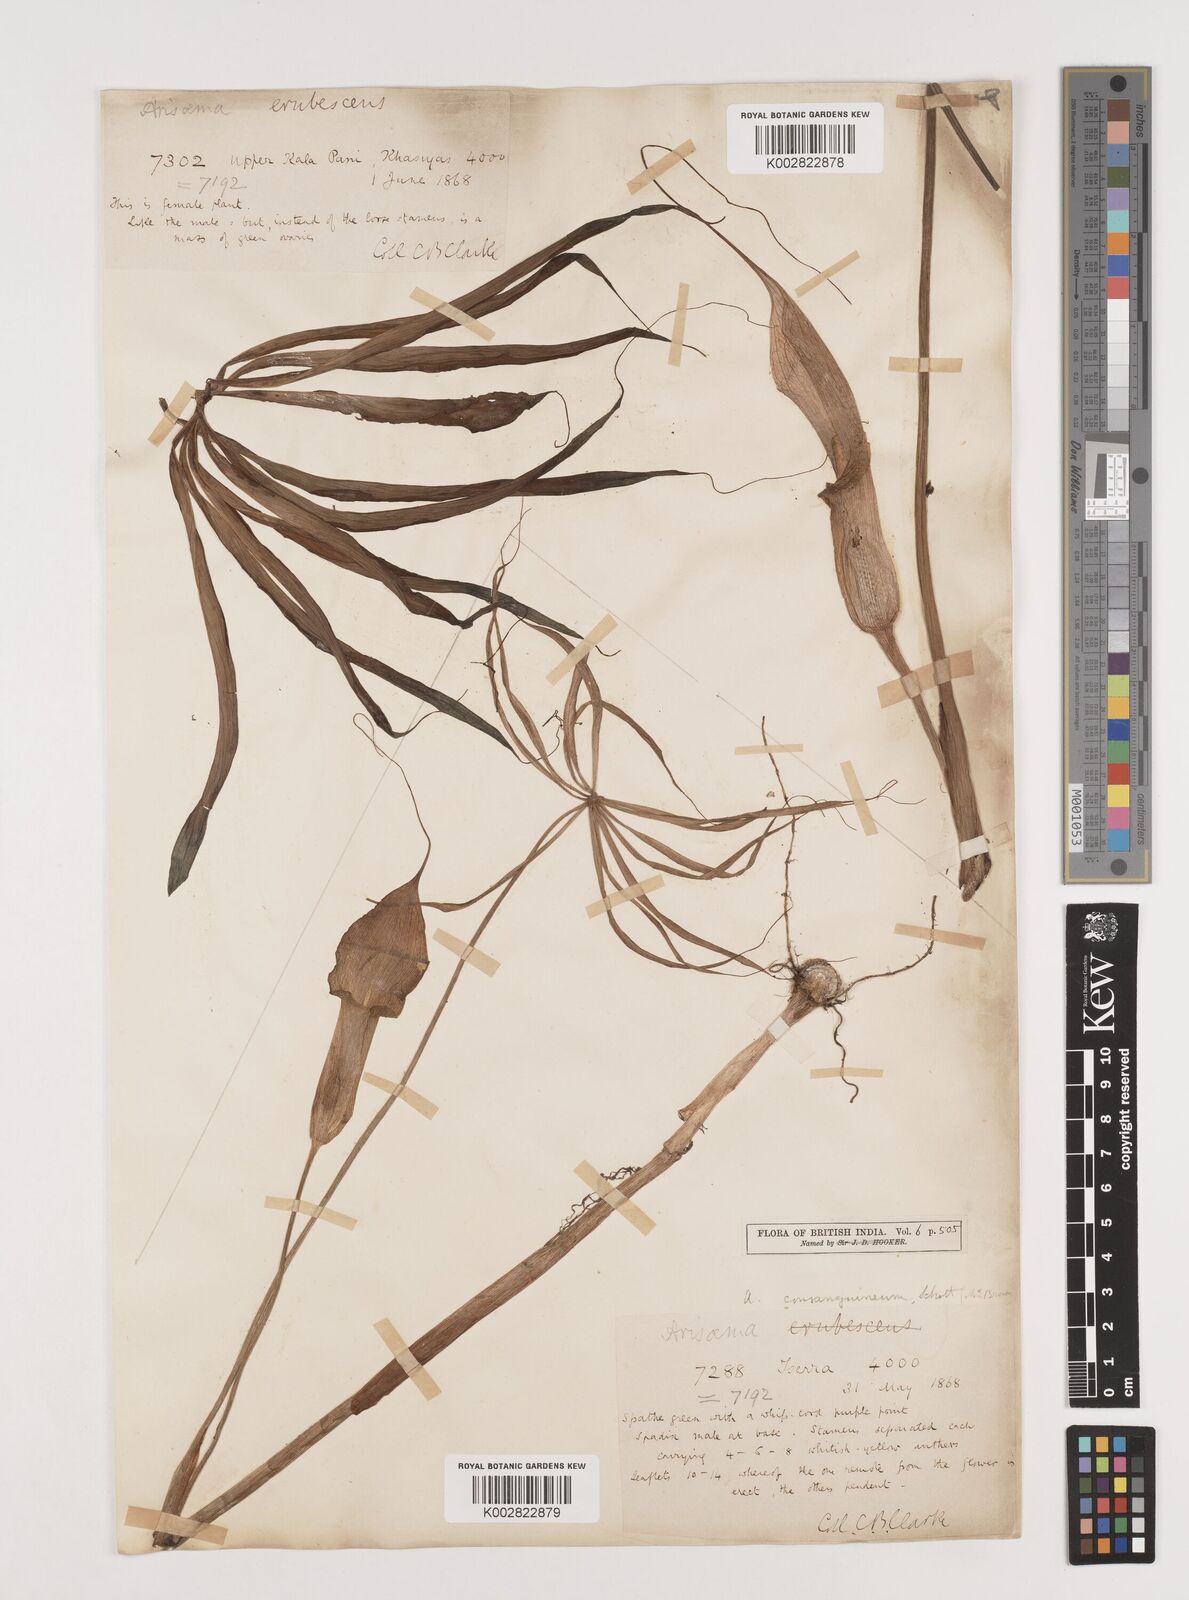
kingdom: Plantae
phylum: Tracheophyta
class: Liliopsida
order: Alismatales
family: Araceae
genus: Arisaema
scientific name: Arisaema erubescens
